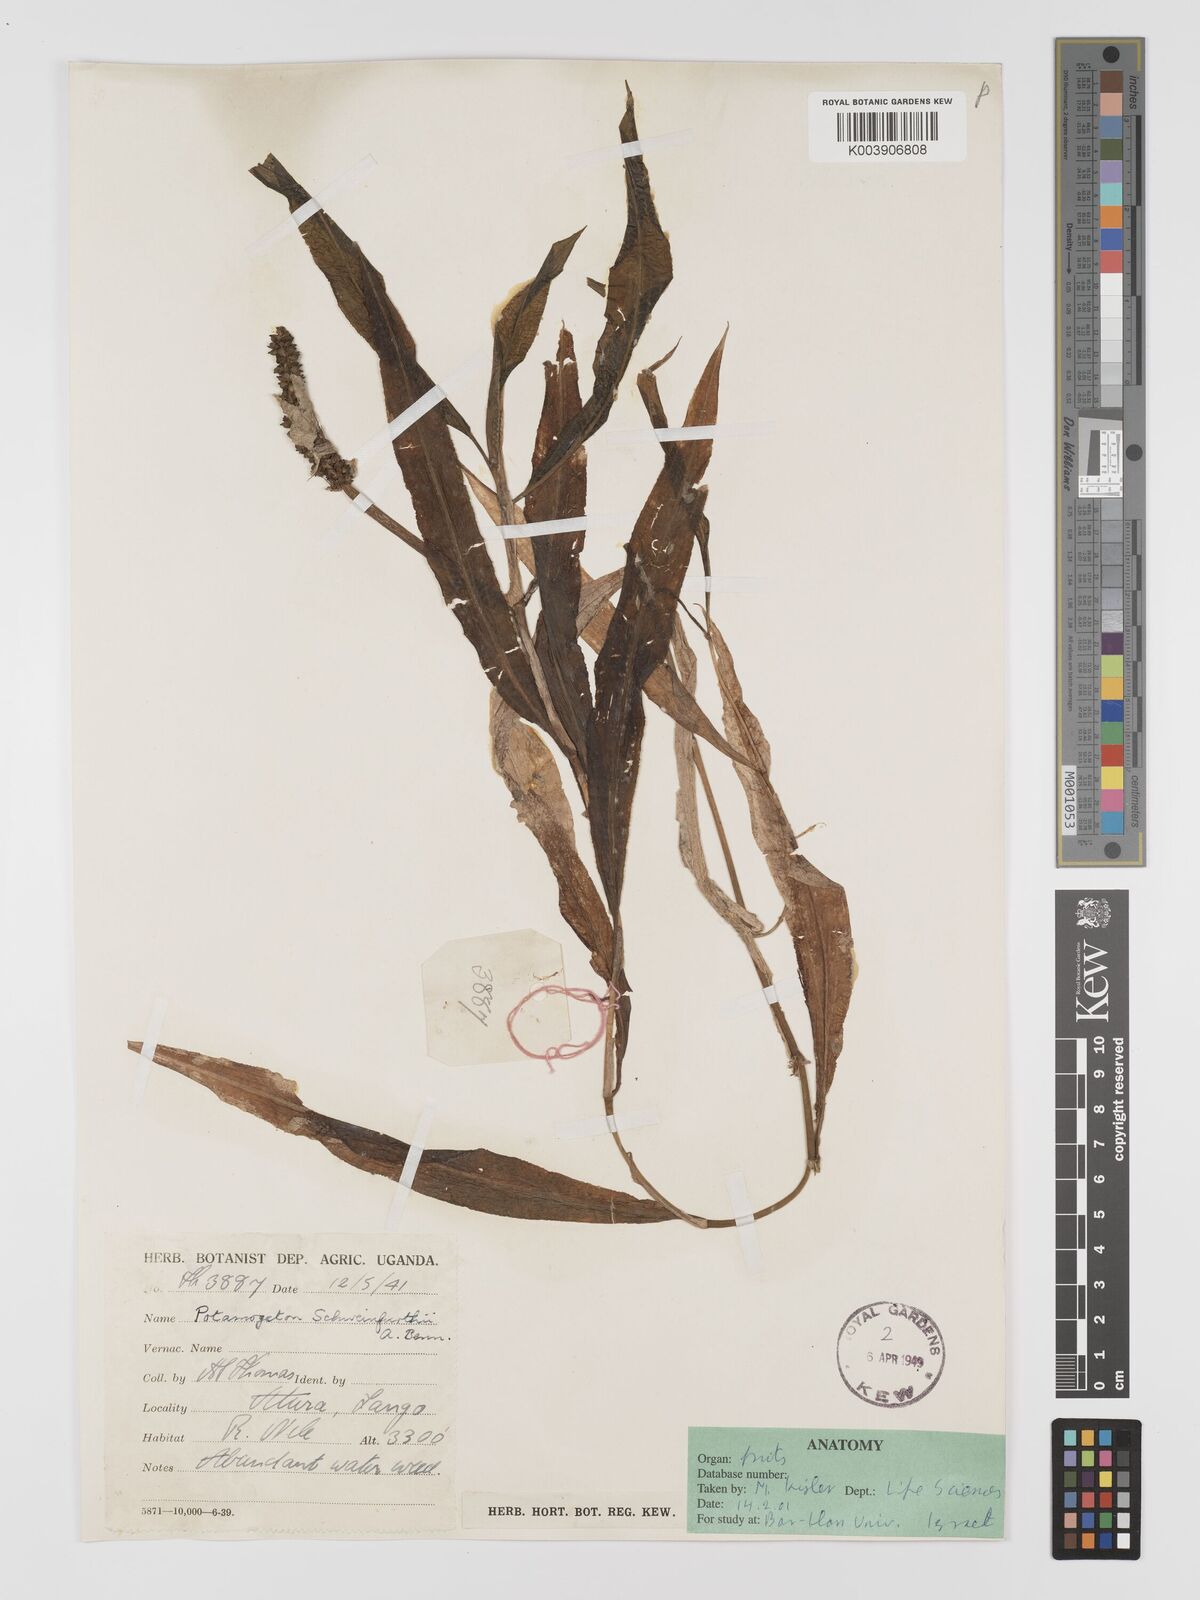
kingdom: Plantae
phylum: Tracheophyta
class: Liliopsida
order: Alismatales
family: Potamogetonaceae
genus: Potamogeton
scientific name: Potamogeton schweinfurthii
